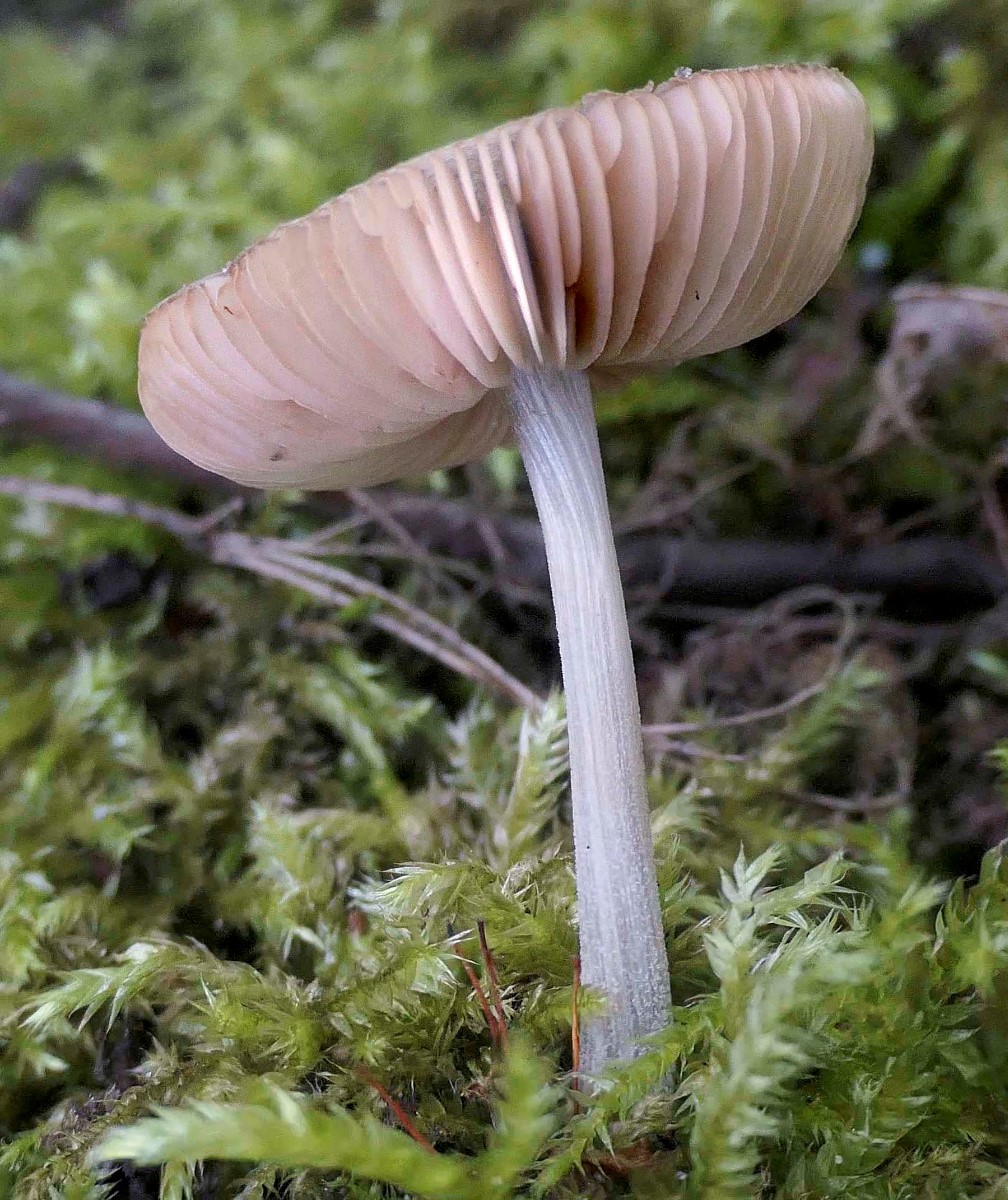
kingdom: Fungi
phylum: Basidiomycota
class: Agaricomycetes
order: Agaricales
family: Pluteaceae
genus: Pluteus
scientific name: Pluteus
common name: gråstokket skærmhat
